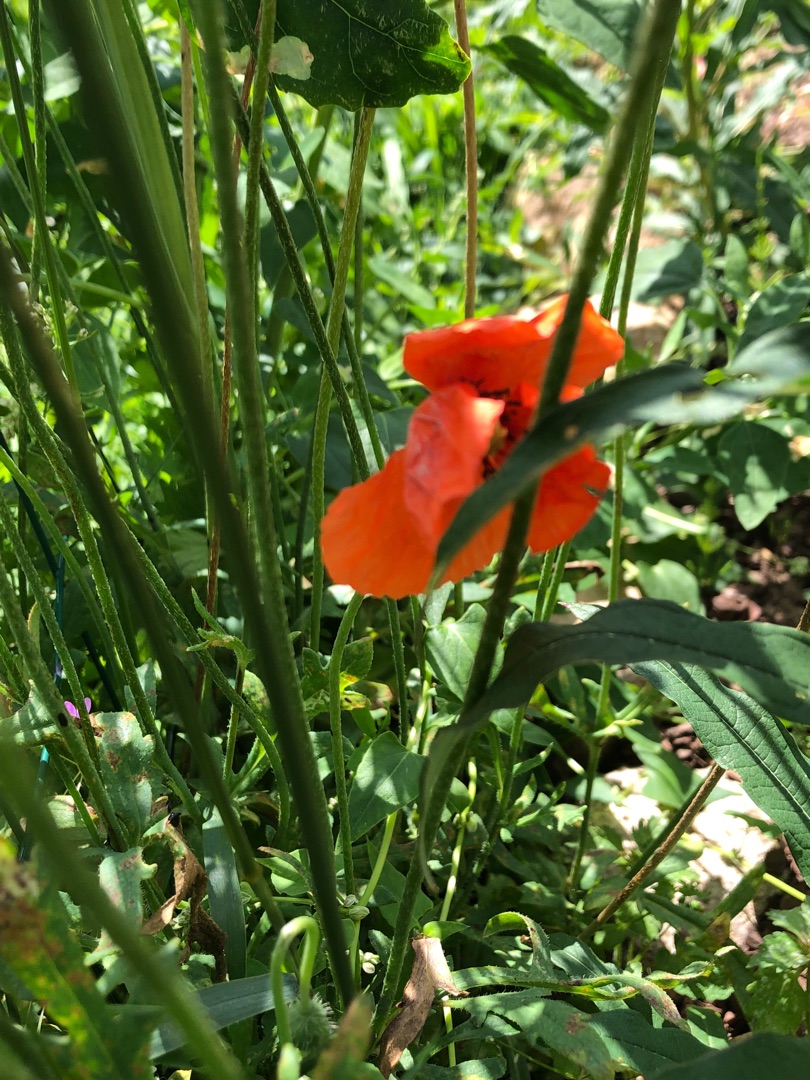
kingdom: Plantae
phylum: Tracheophyta
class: Magnoliopsida
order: Ranunculales
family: Papaveraceae
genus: Papaver
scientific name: Papaver dubium
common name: Gærde-valmue
